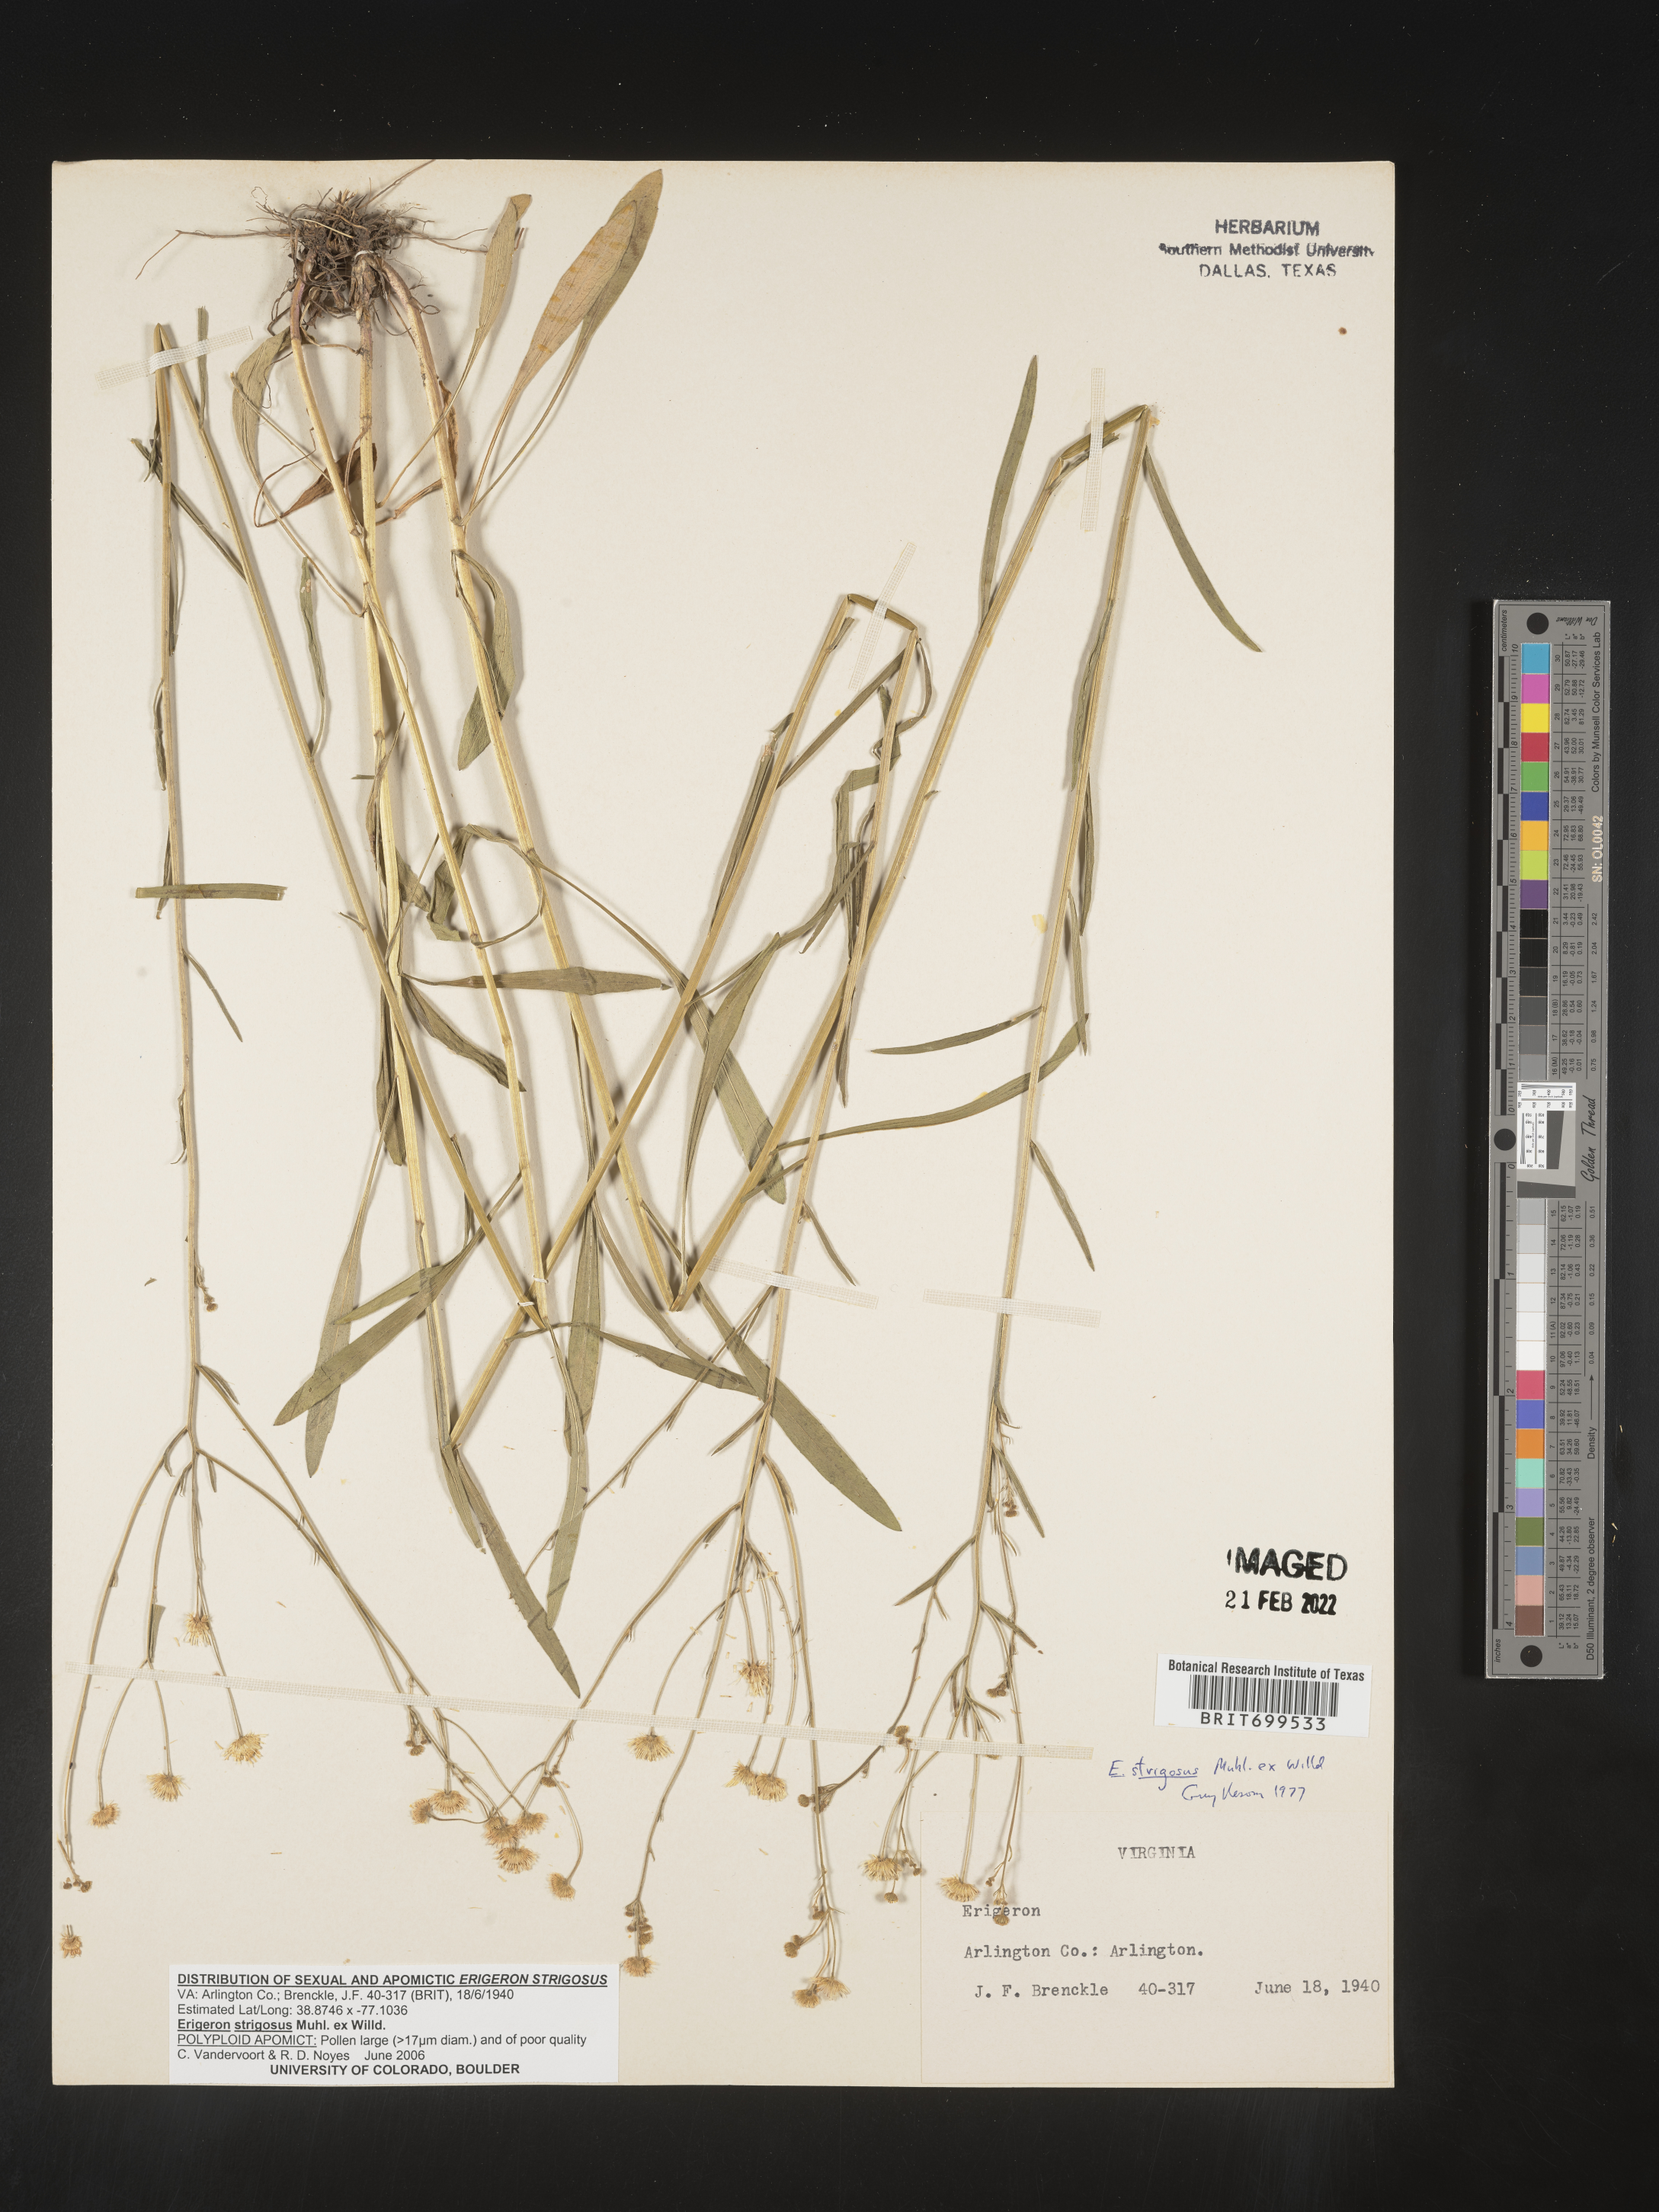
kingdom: Plantae
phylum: Tracheophyta
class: Magnoliopsida
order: Asterales
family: Asteraceae
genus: Erigeron
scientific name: Erigeron strigosus
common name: Common eastern fleabane
